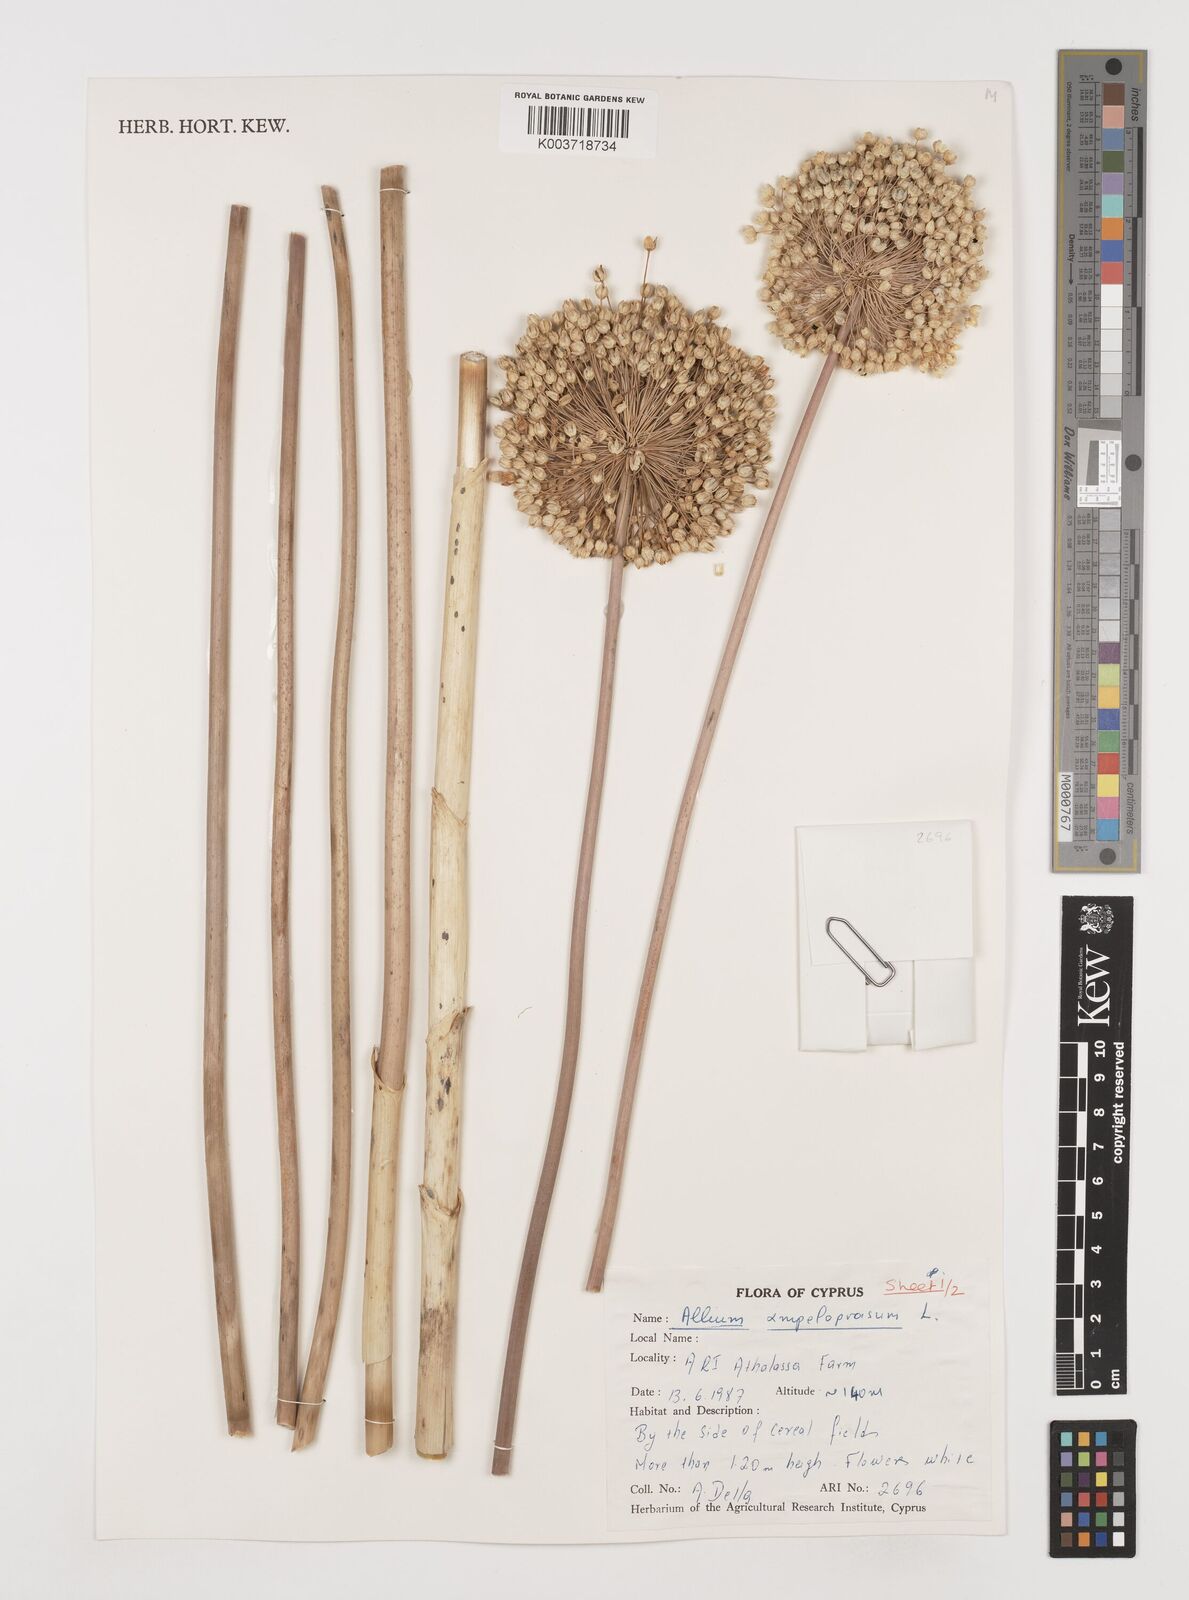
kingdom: Plantae
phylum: Tracheophyta
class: Liliopsida
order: Asparagales
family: Amaryllidaceae
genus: Allium
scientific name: Allium ampeloprasum
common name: Wild leek
